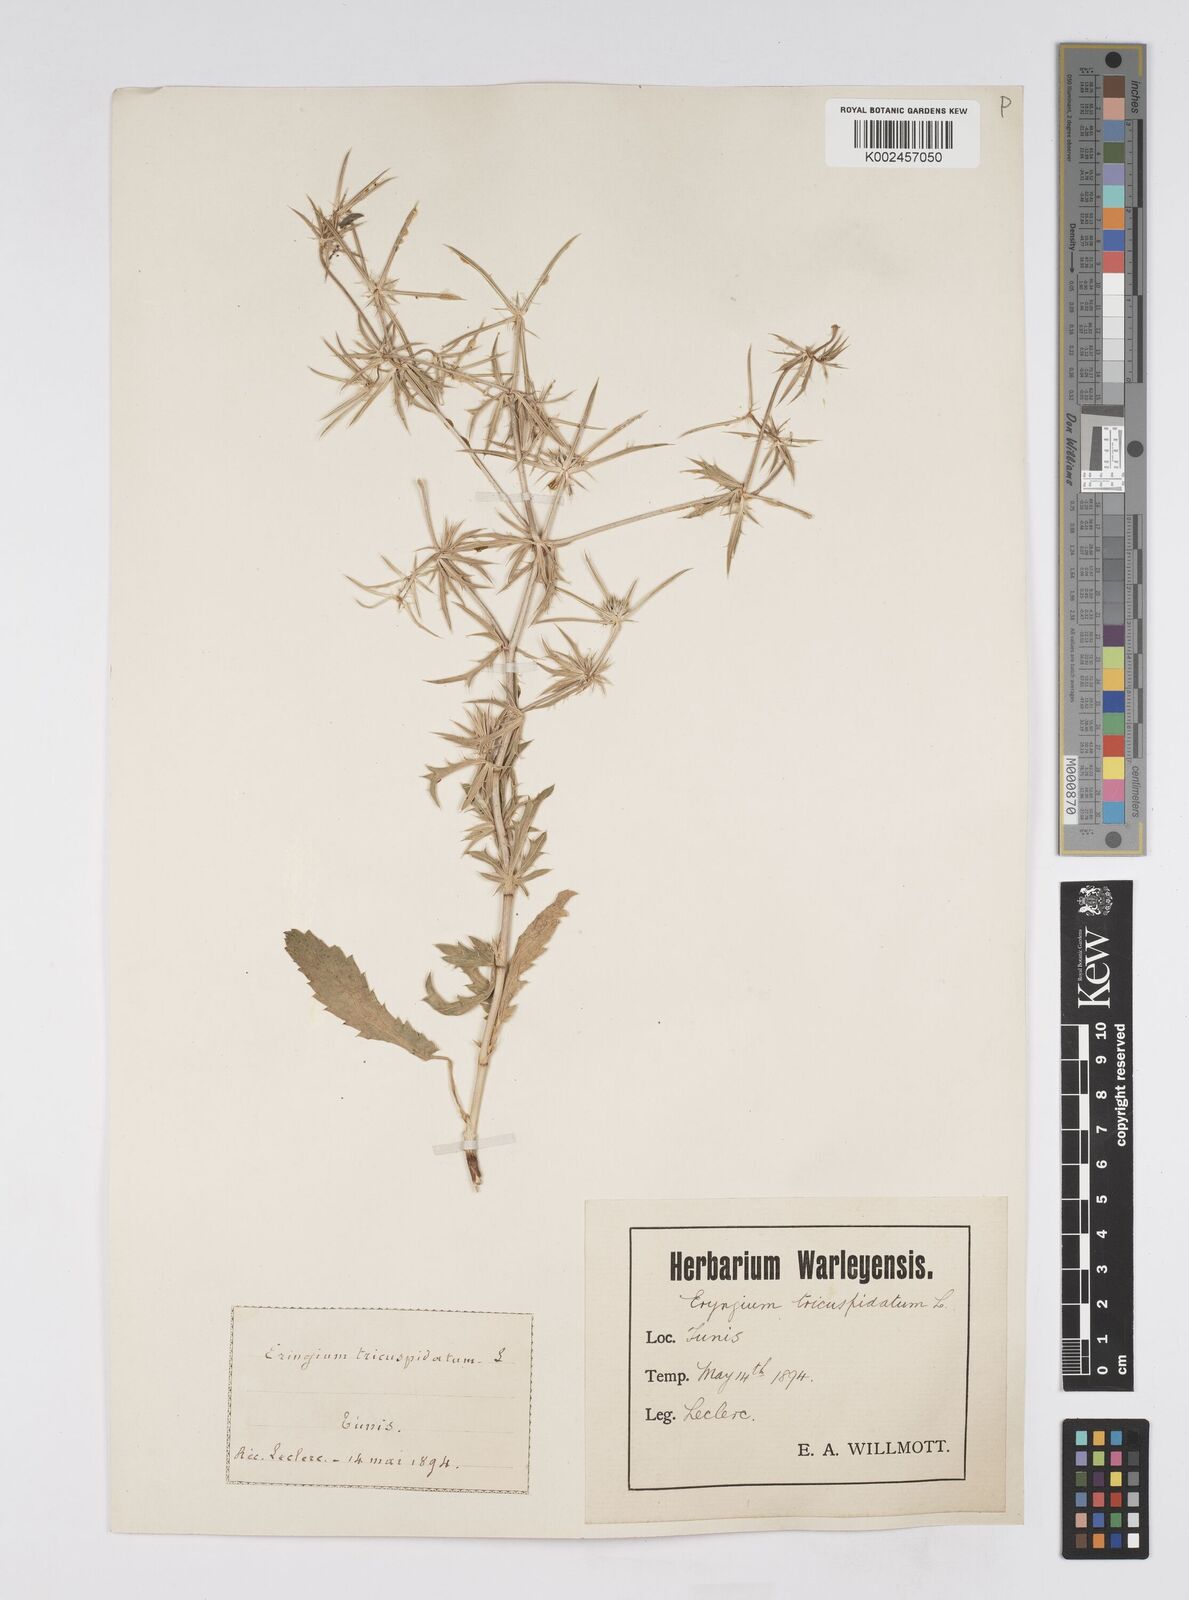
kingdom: Plantae
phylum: Tracheophyta
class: Magnoliopsida
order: Apiales
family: Apiaceae
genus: Eryngium
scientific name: Eryngium tricuspidatum
